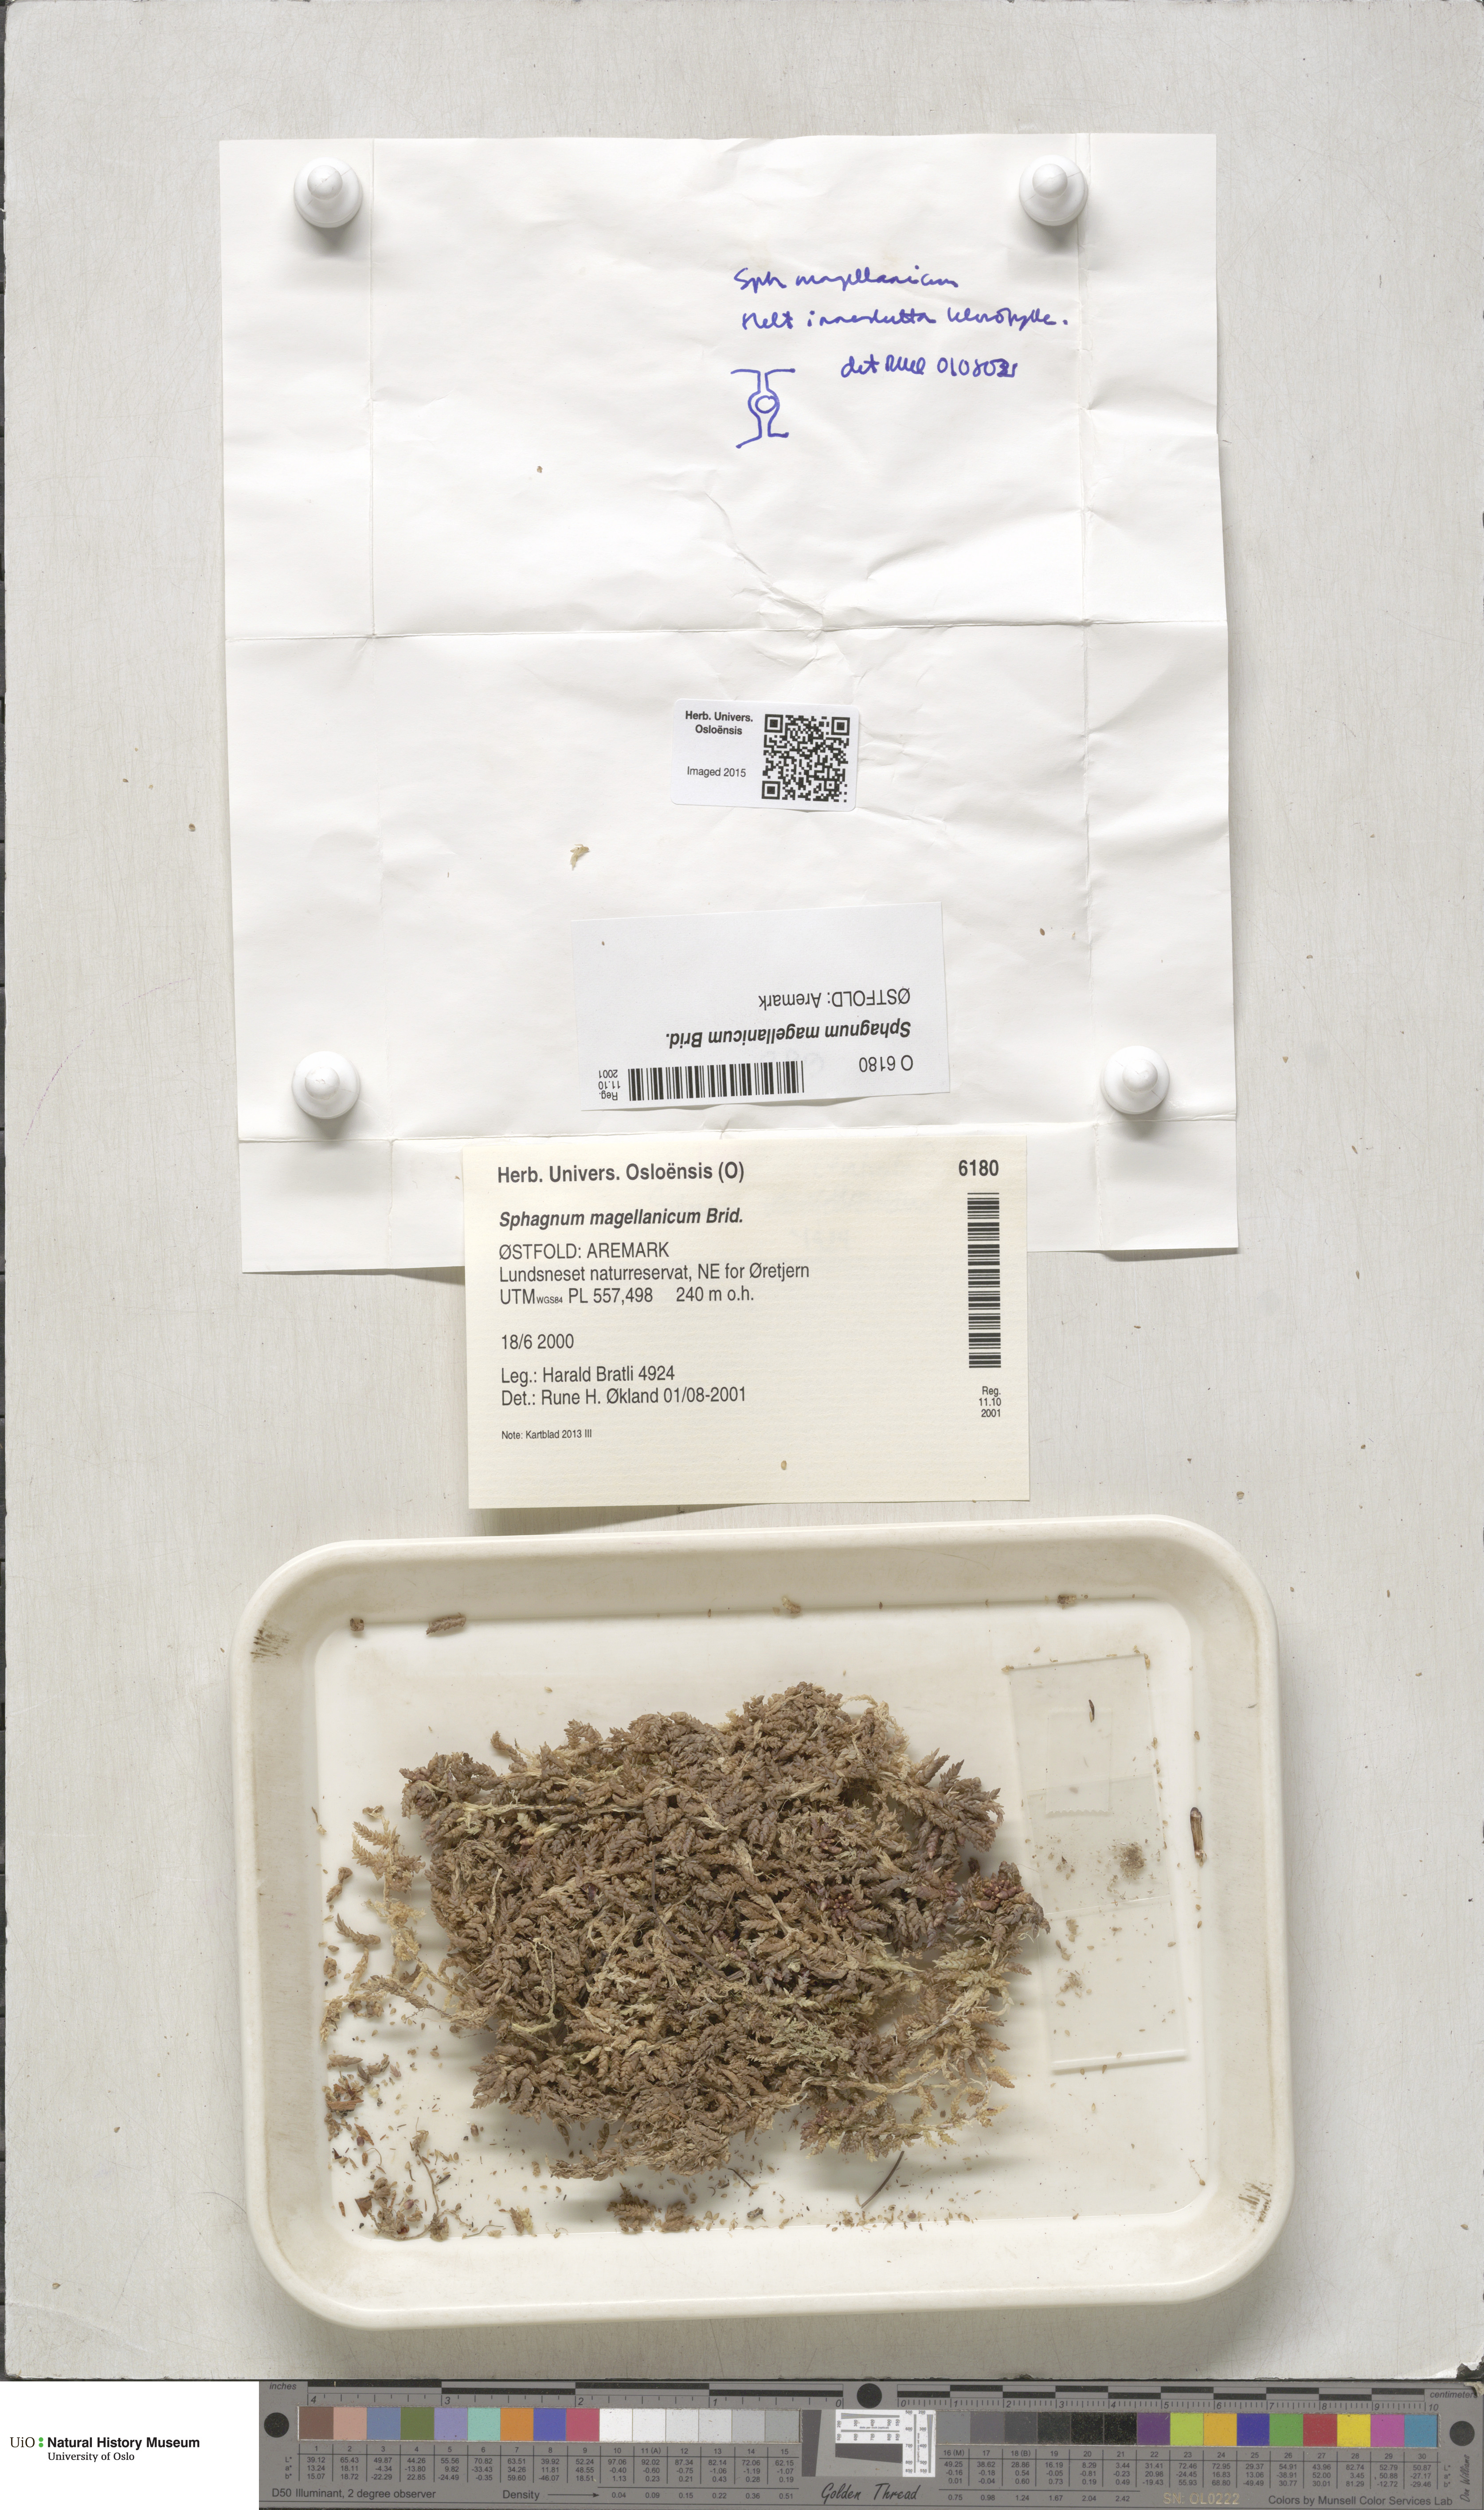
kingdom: Plantae
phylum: Bryophyta
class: Sphagnopsida
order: Sphagnales
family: Sphagnaceae
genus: Sphagnum
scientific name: Sphagnum magellanicum
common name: Magellan's peat moss
